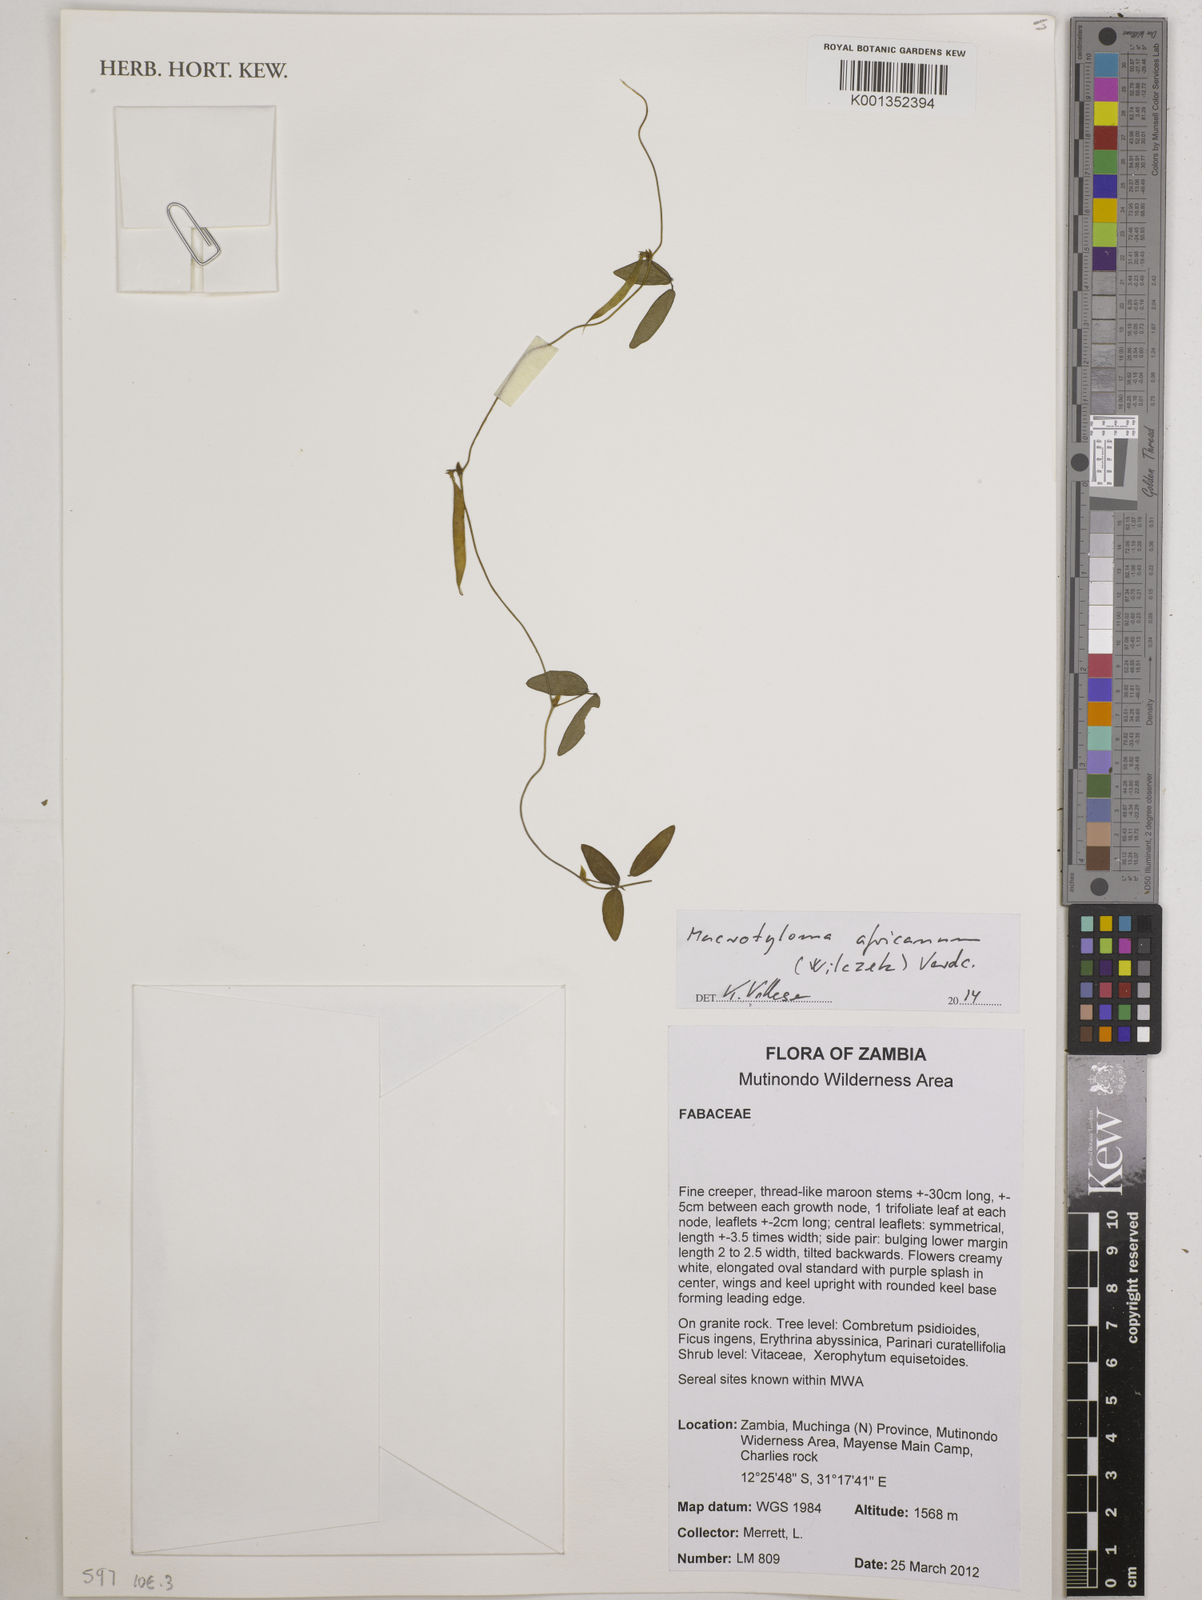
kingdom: Plantae
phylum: Tracheophyta
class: Magnoliopsida
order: Fabales
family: Fabaceae
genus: Macrotyloma
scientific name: Macrotyloma africanum
